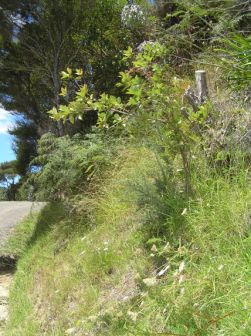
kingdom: Plantae
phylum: Tracheophyta
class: Magnoliopsida
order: Myrtales
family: Myrtaceae
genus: Psidium
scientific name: Psidium cattleianum
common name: Strawberry guava
